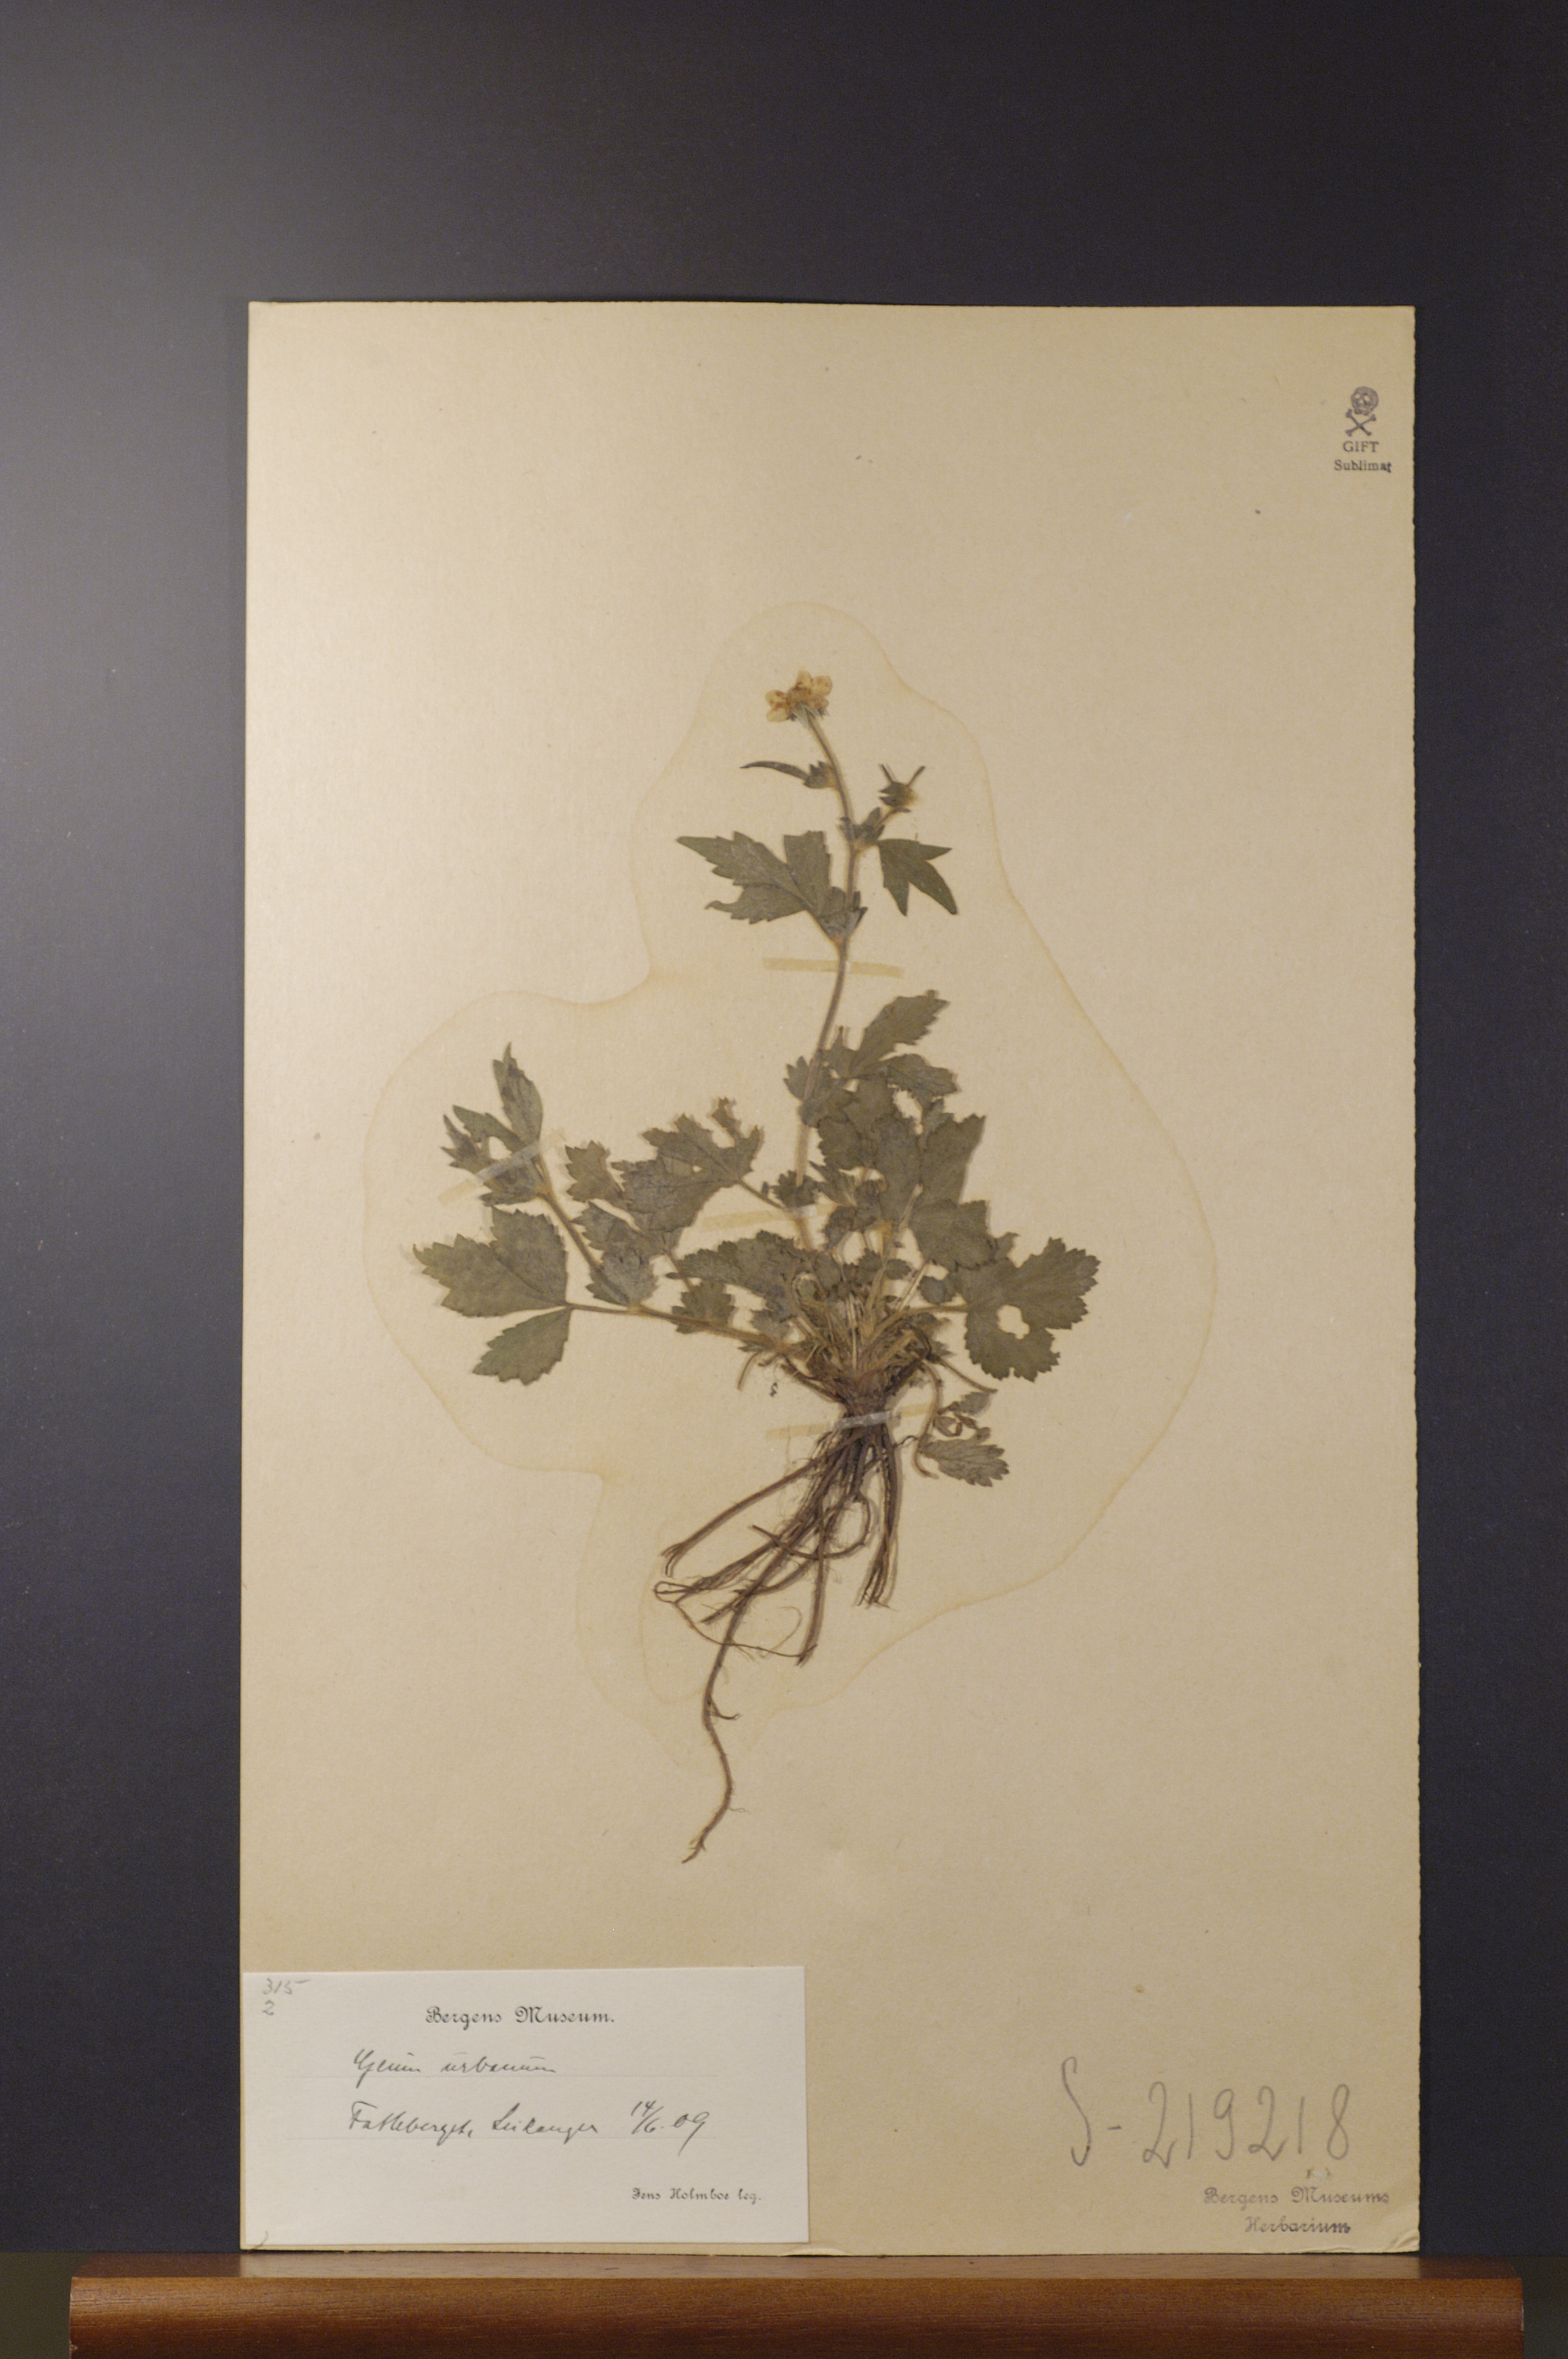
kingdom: Plantae
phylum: Tracheophyta
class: Magnoliopsida
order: Rosales
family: Rosaceae
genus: Geum
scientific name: Geum urbanum
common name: Wood avens
